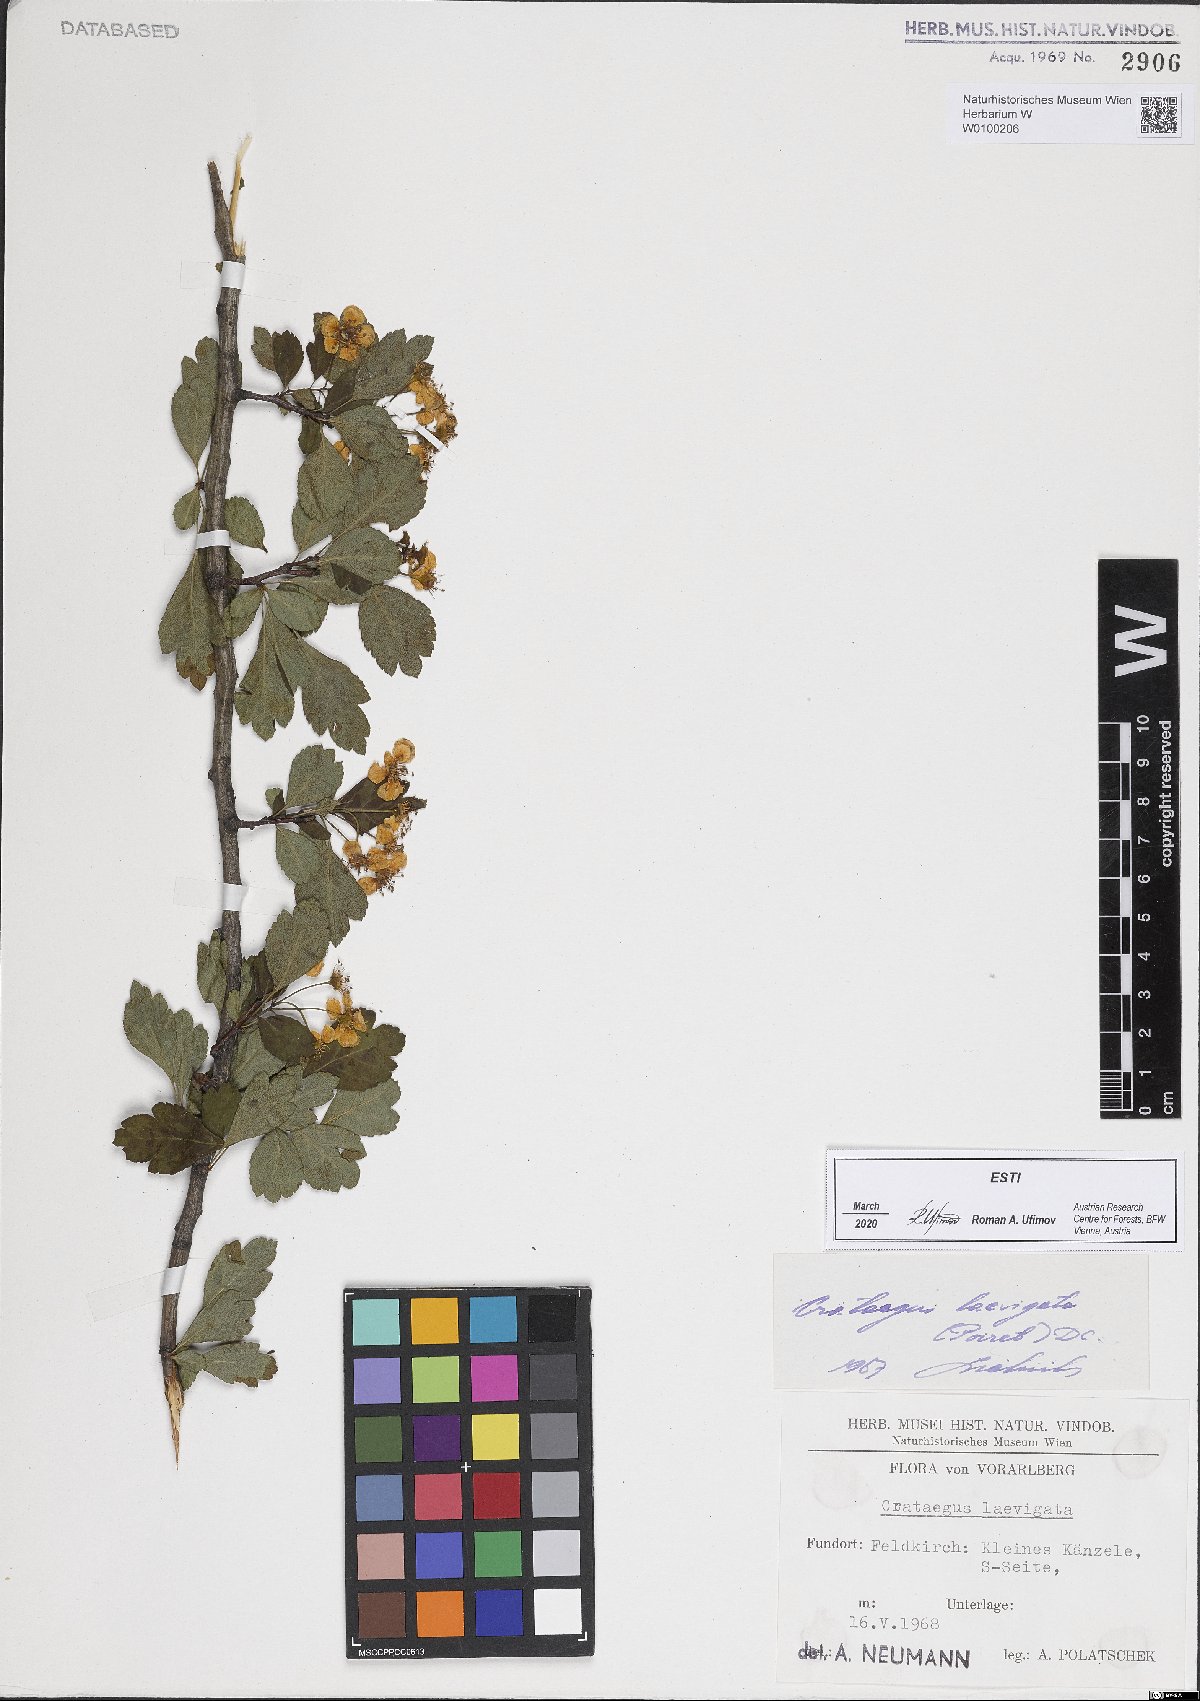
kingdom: Plantae
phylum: Tracheophyta
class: Magnoliopsida
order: Rosales
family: Rosaceae
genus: Crataegus
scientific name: Crataegus laevigata
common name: Midland hawthorn
